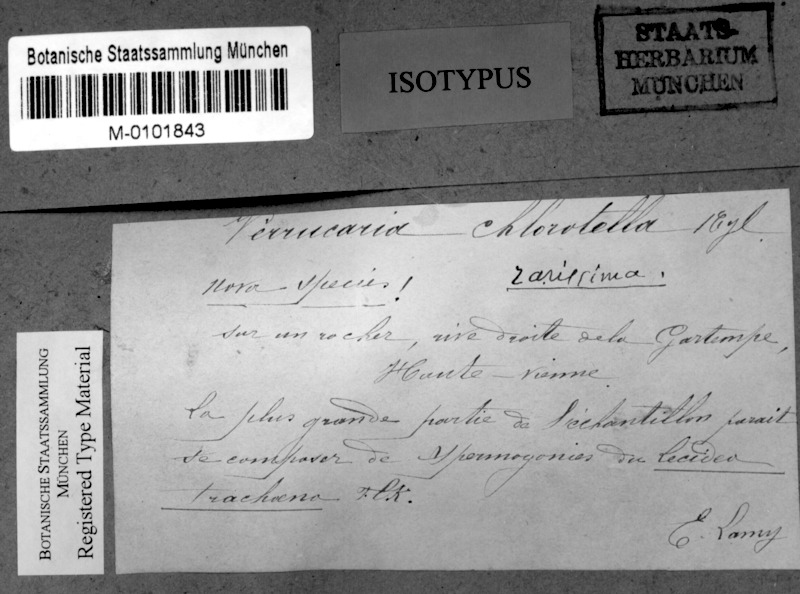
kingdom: Fungi
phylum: Ascomycota
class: Lecanoromycetes
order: Ostropales
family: Porinaceae
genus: Pseudosagedia
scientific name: Pseudosagedia chlorotica
